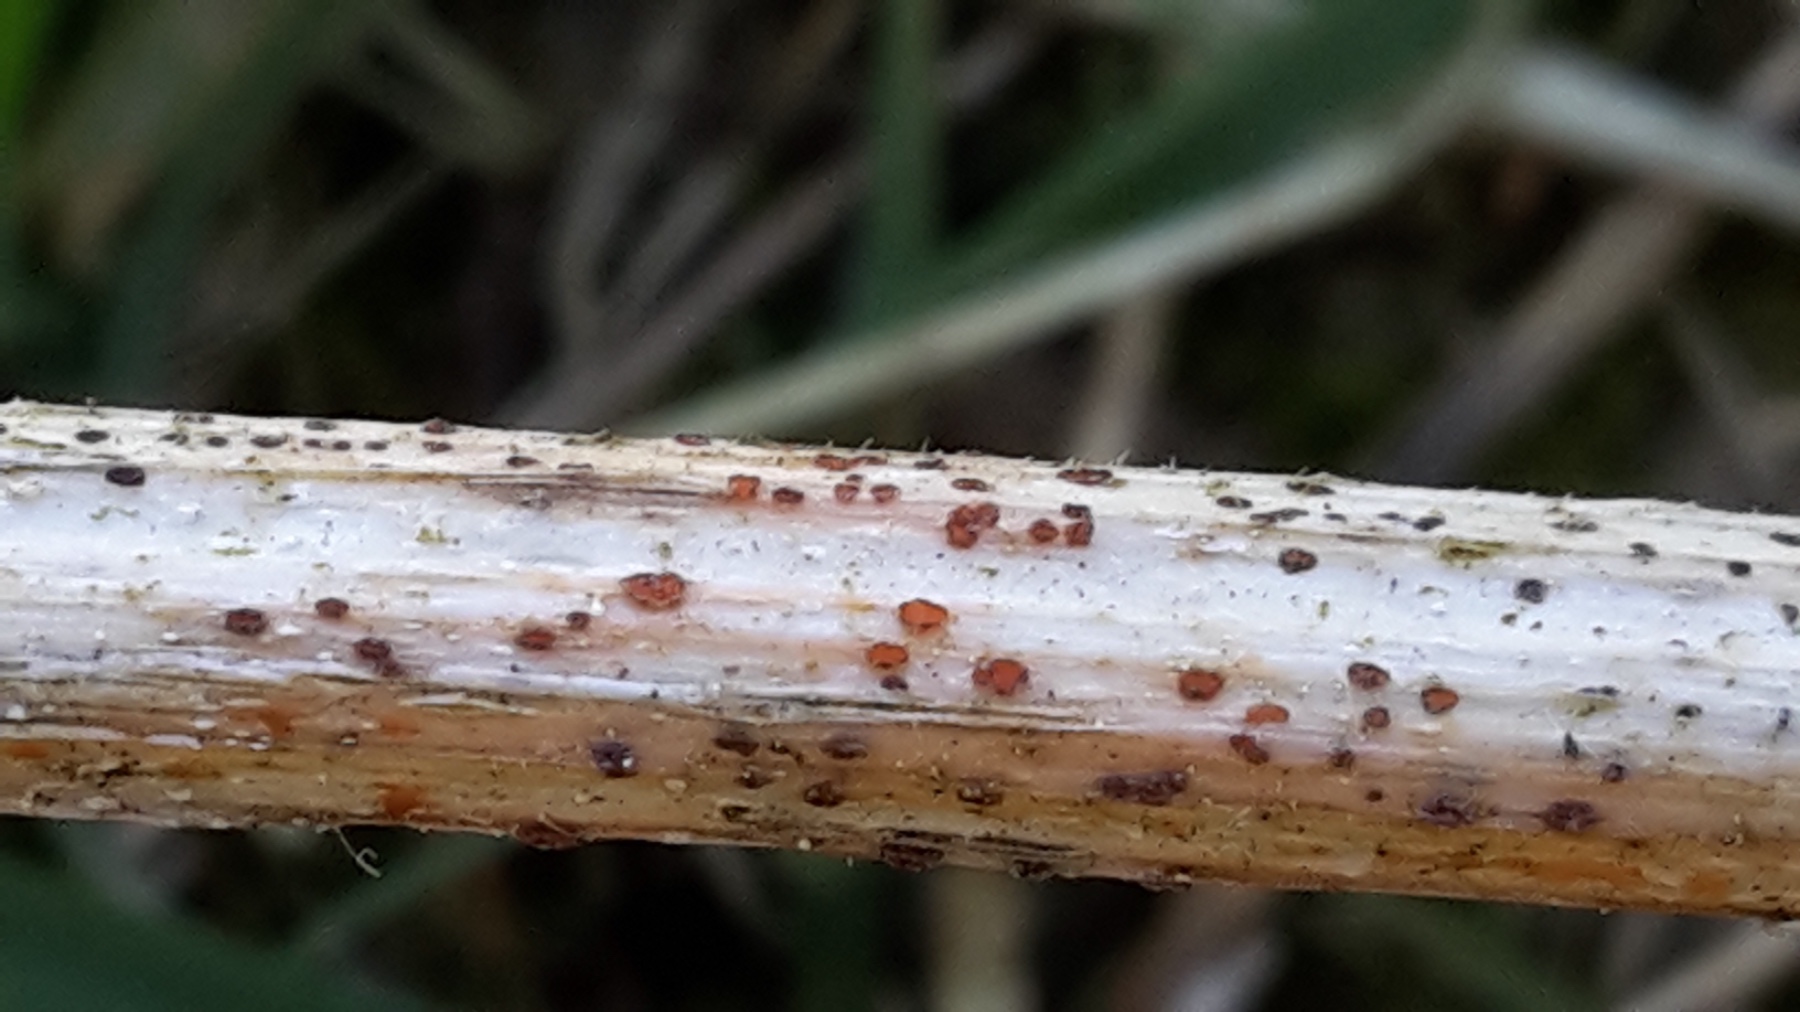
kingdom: Fungi
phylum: Ascomycota
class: Leotiomycetes
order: Helotiales
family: Calloriaceae
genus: Calloria
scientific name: Calloria urticae
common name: nælde-orangeskive
